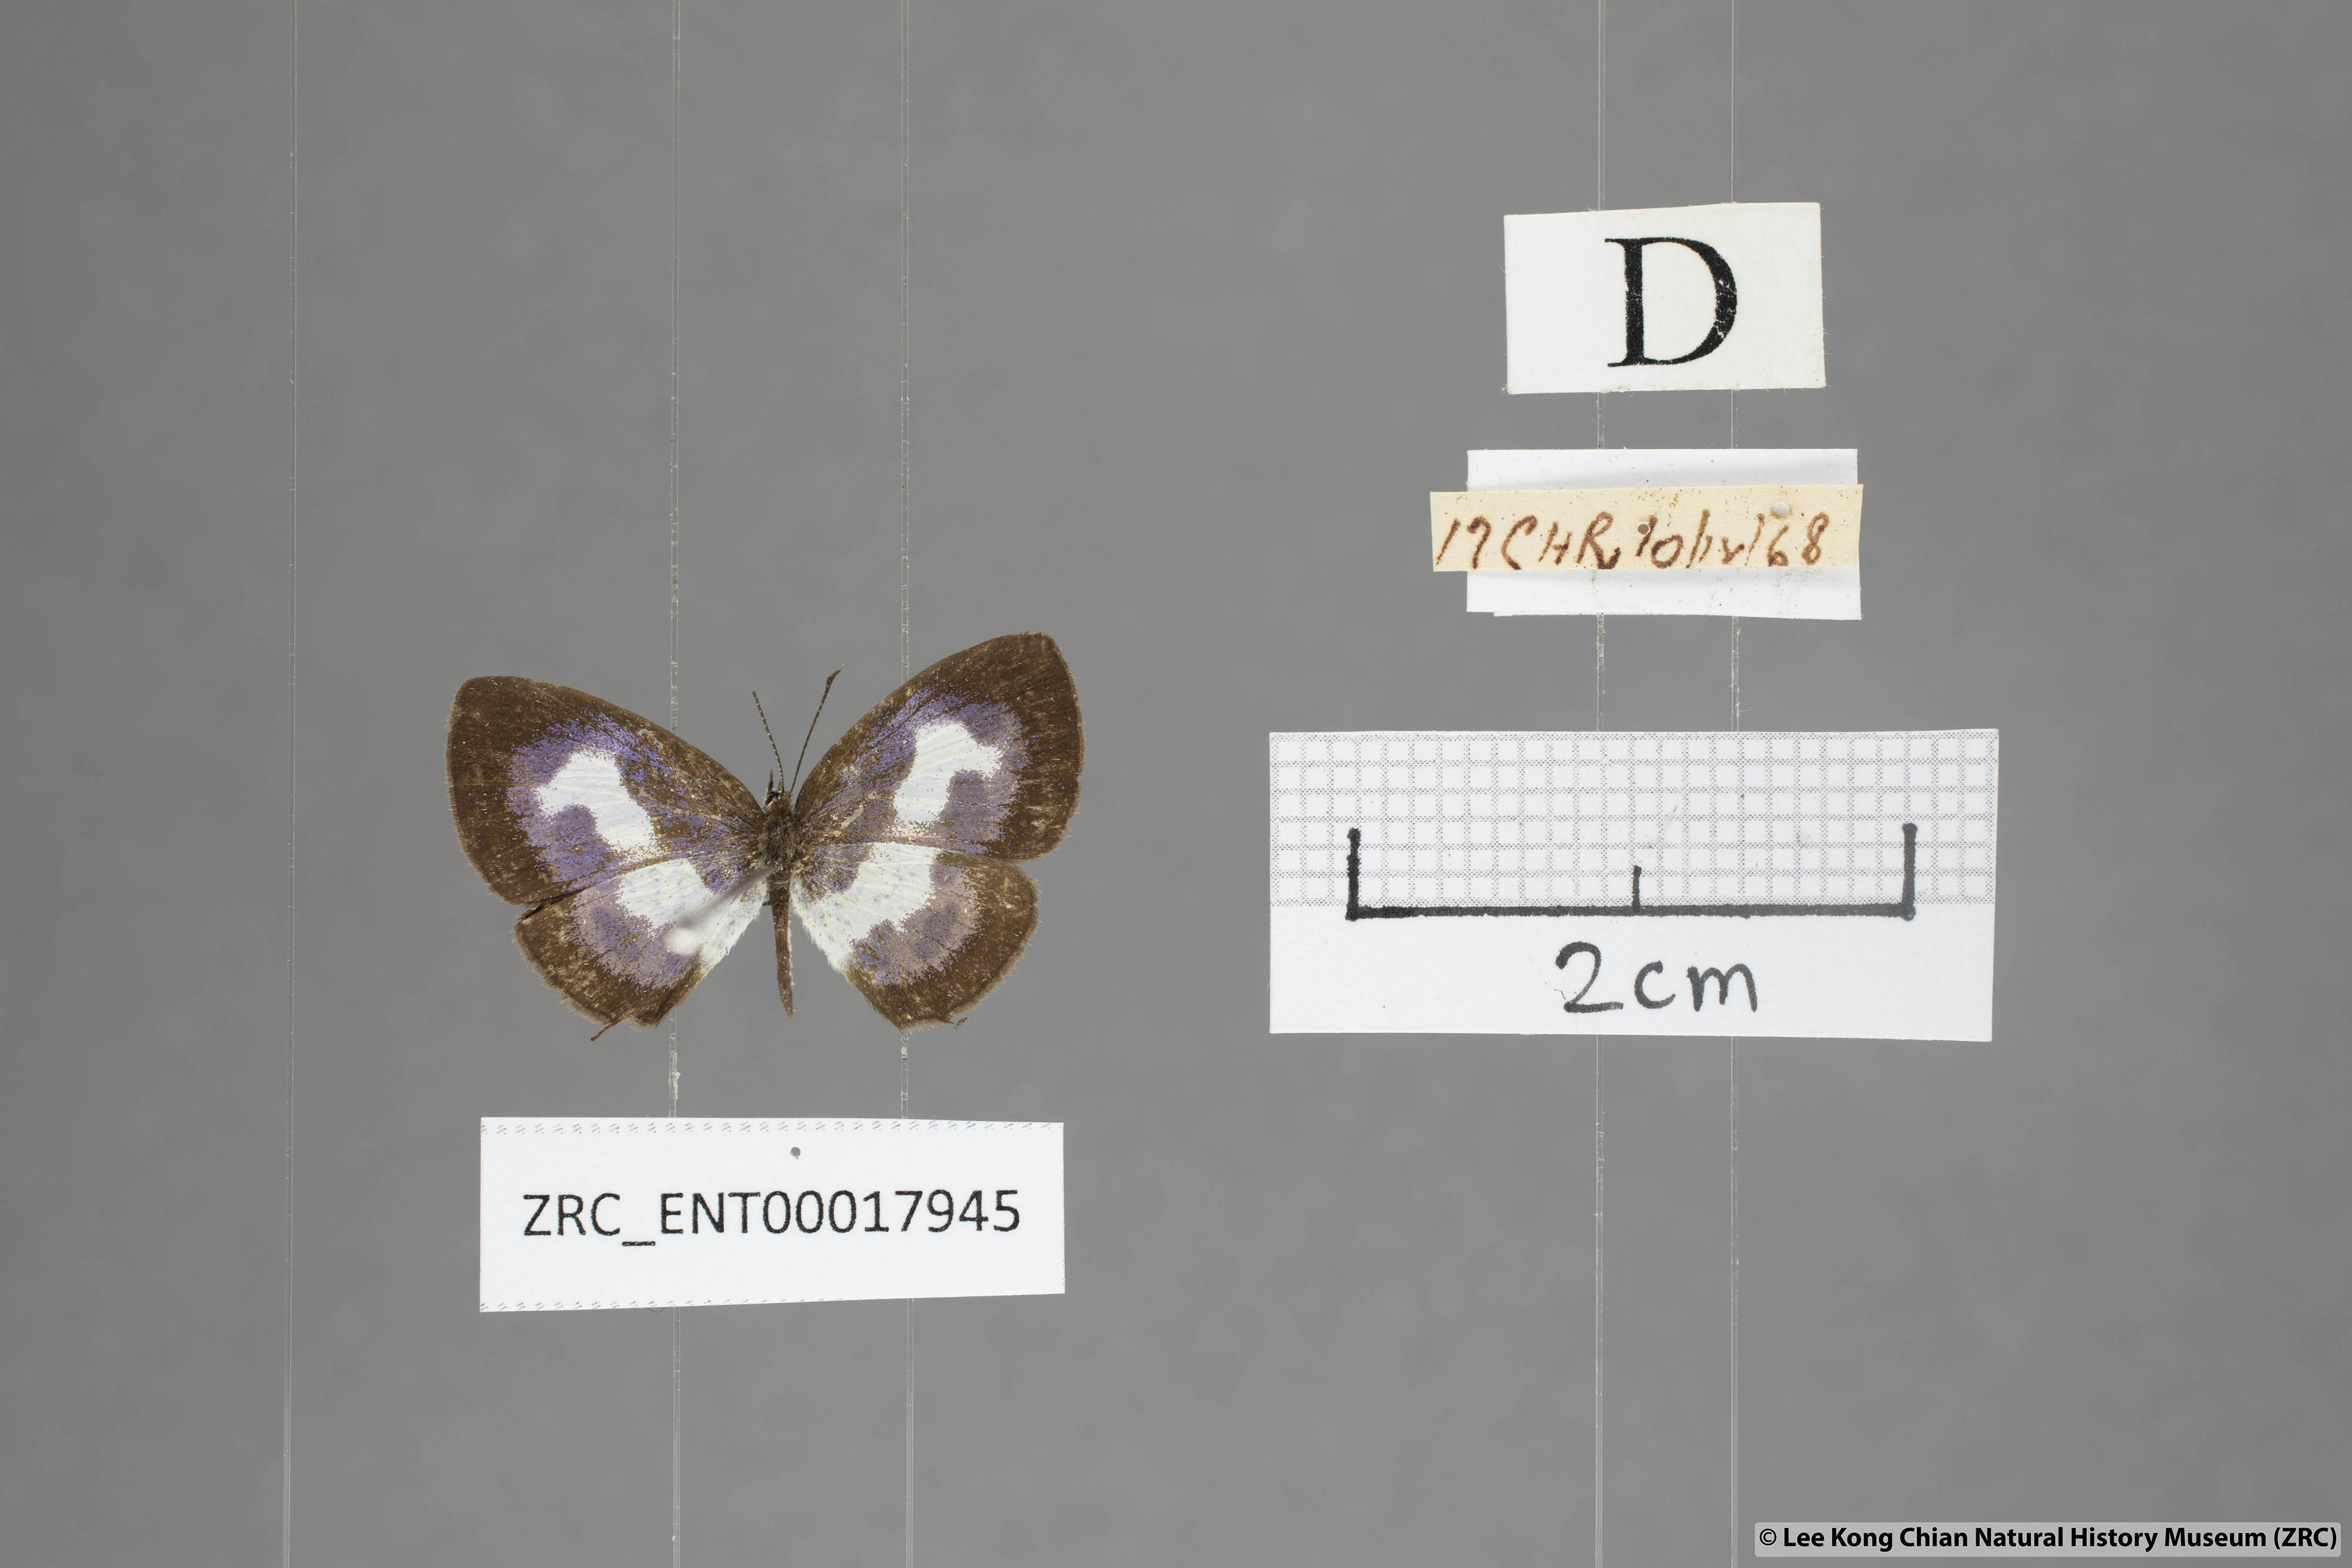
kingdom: Animalia
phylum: Arthropoda
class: Insecta
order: Lepidoptera
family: Lycaenidae
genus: Discolampa
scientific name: Discolampa ethion
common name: Banded blue pierrot
